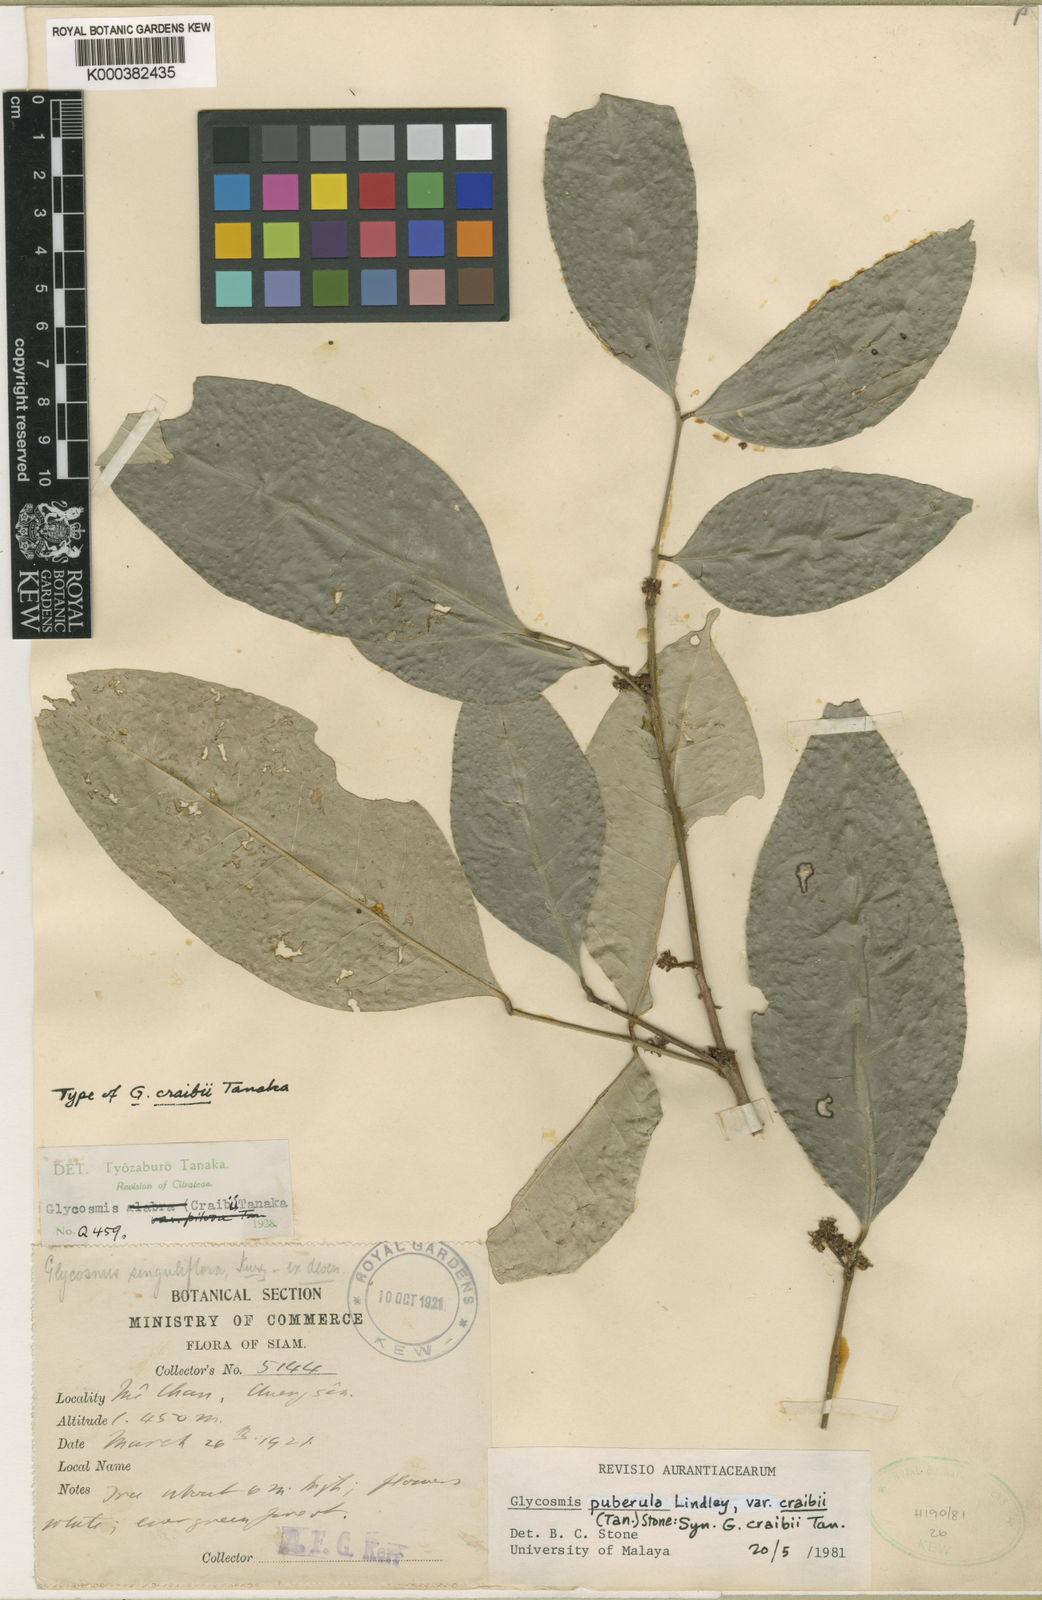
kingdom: Plantae
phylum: Tracheophyta
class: Magnoliopsida
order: Sapindales
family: Rutaceae
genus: Glycosmis
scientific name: Glycosmis craibii
